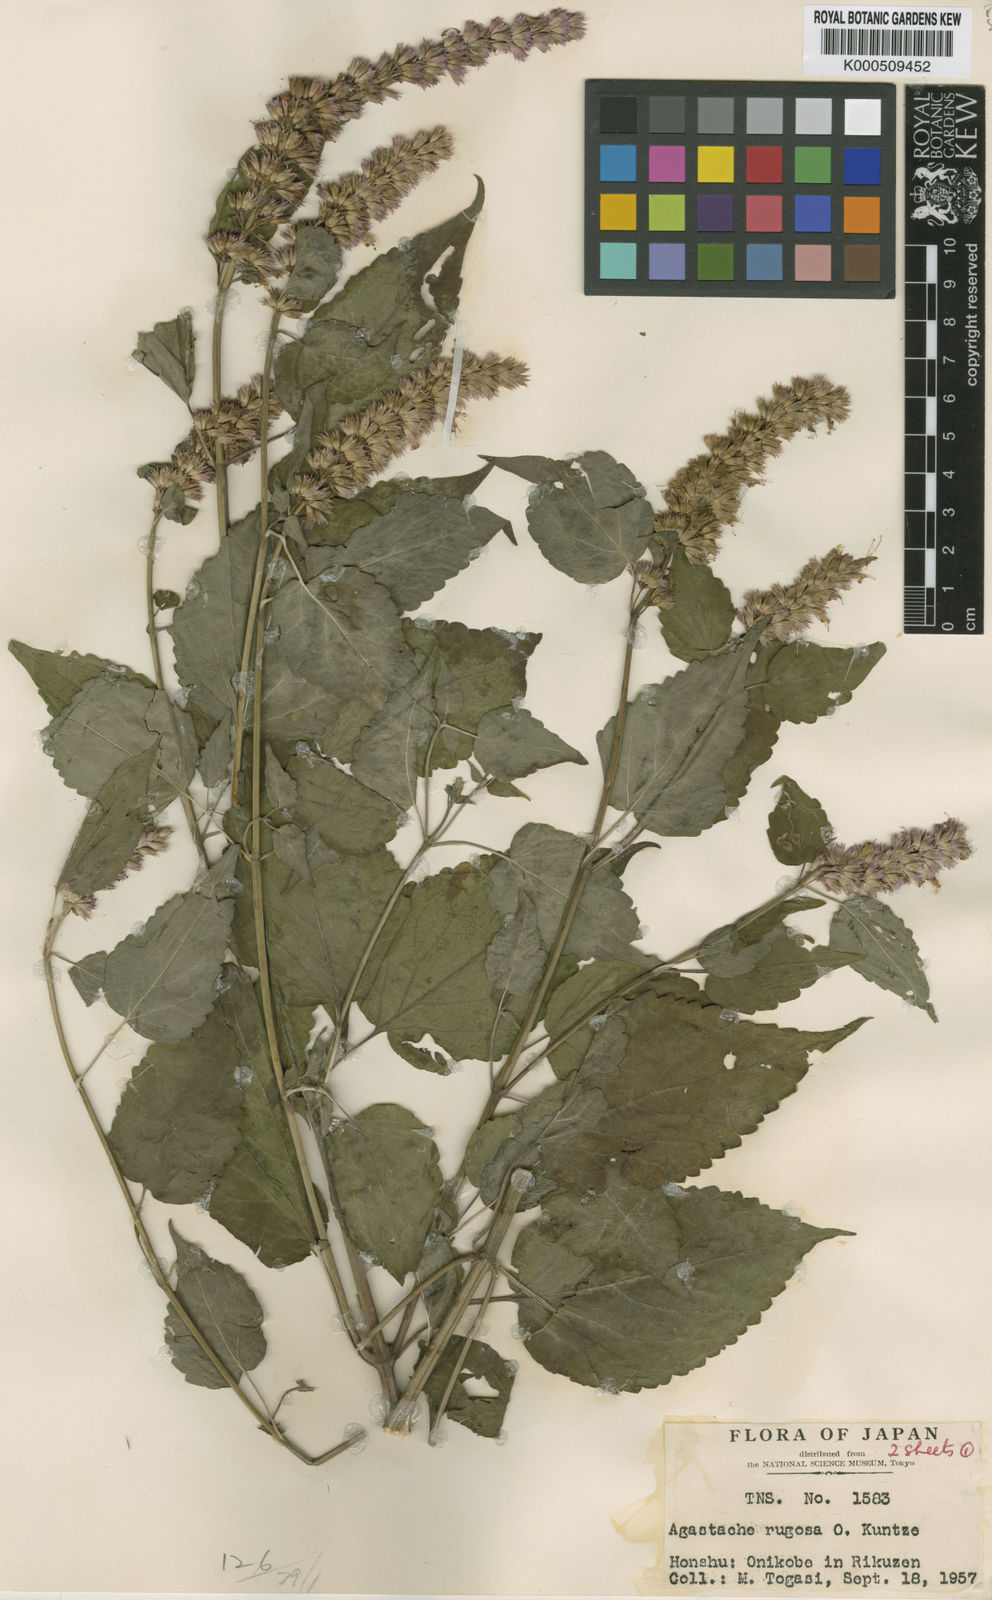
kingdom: Plantae
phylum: Tracheophyta
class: Magnoliopsida
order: Lamiales
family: Lamiaceae
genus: Agastache
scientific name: Agastache rugosa
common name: Mint
